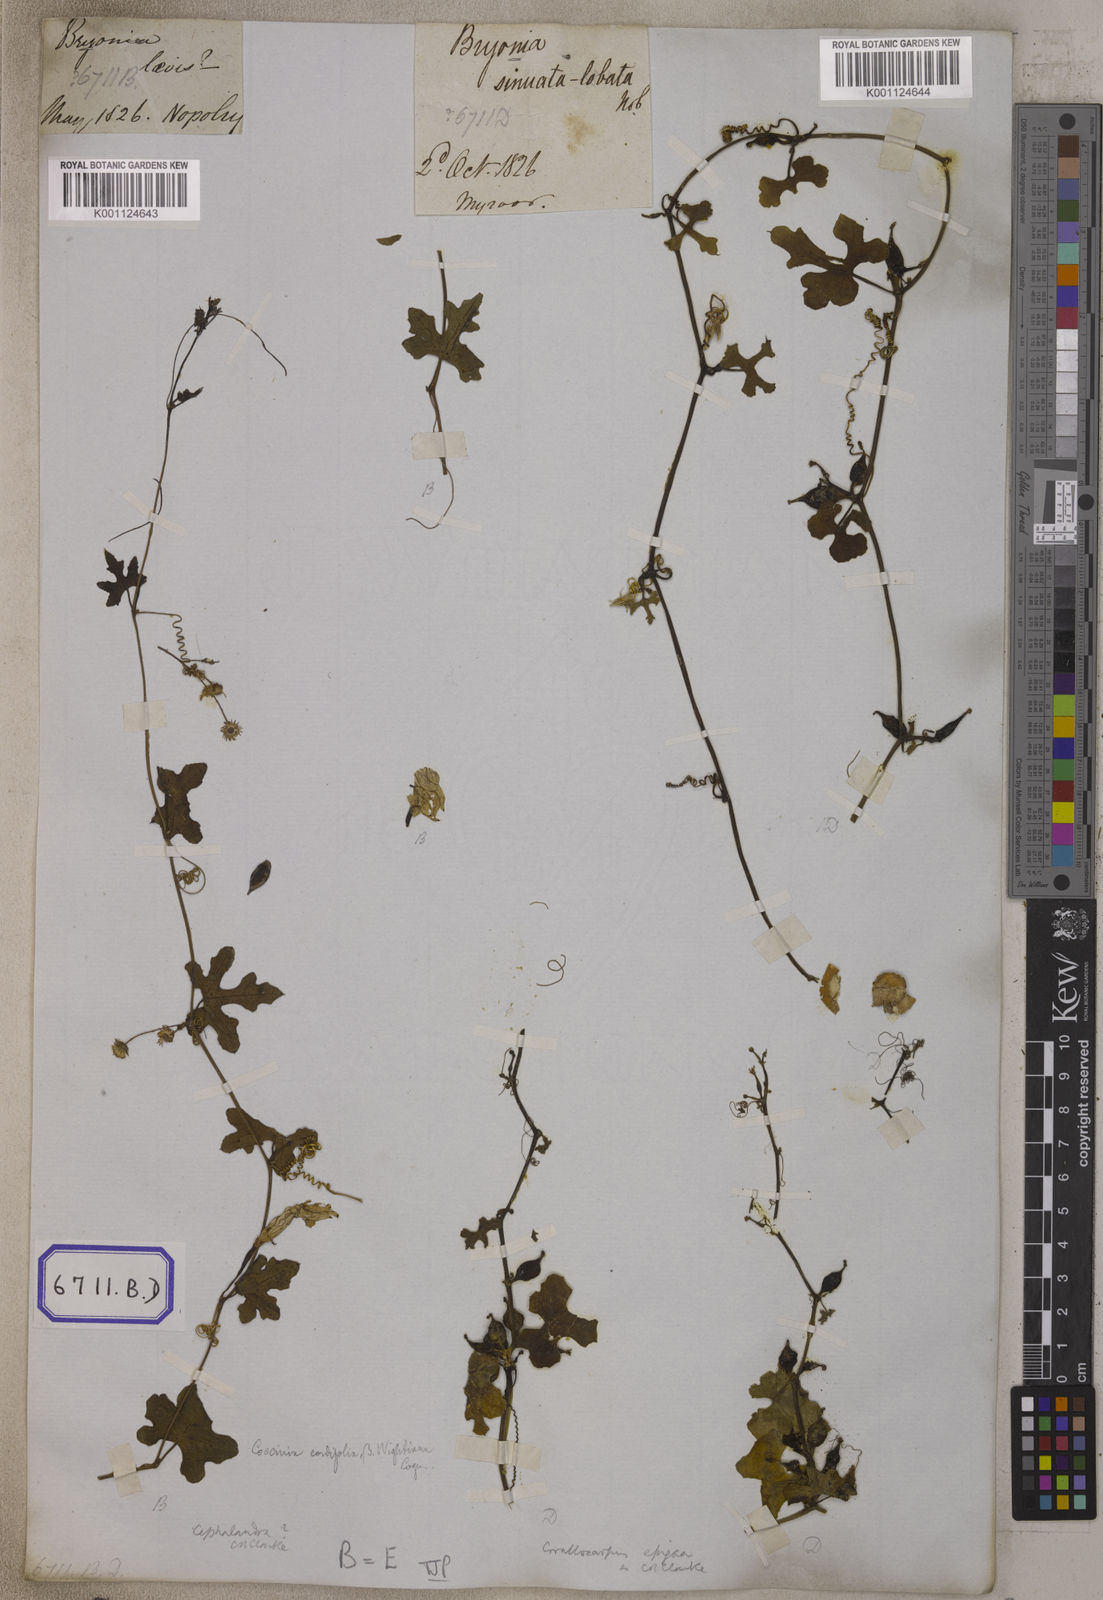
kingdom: Plantae
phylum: Tracheophyta
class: Magnoliopsida
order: Cucurbitales
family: Cucurbitaceae
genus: Bryonia
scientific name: Bryonia
